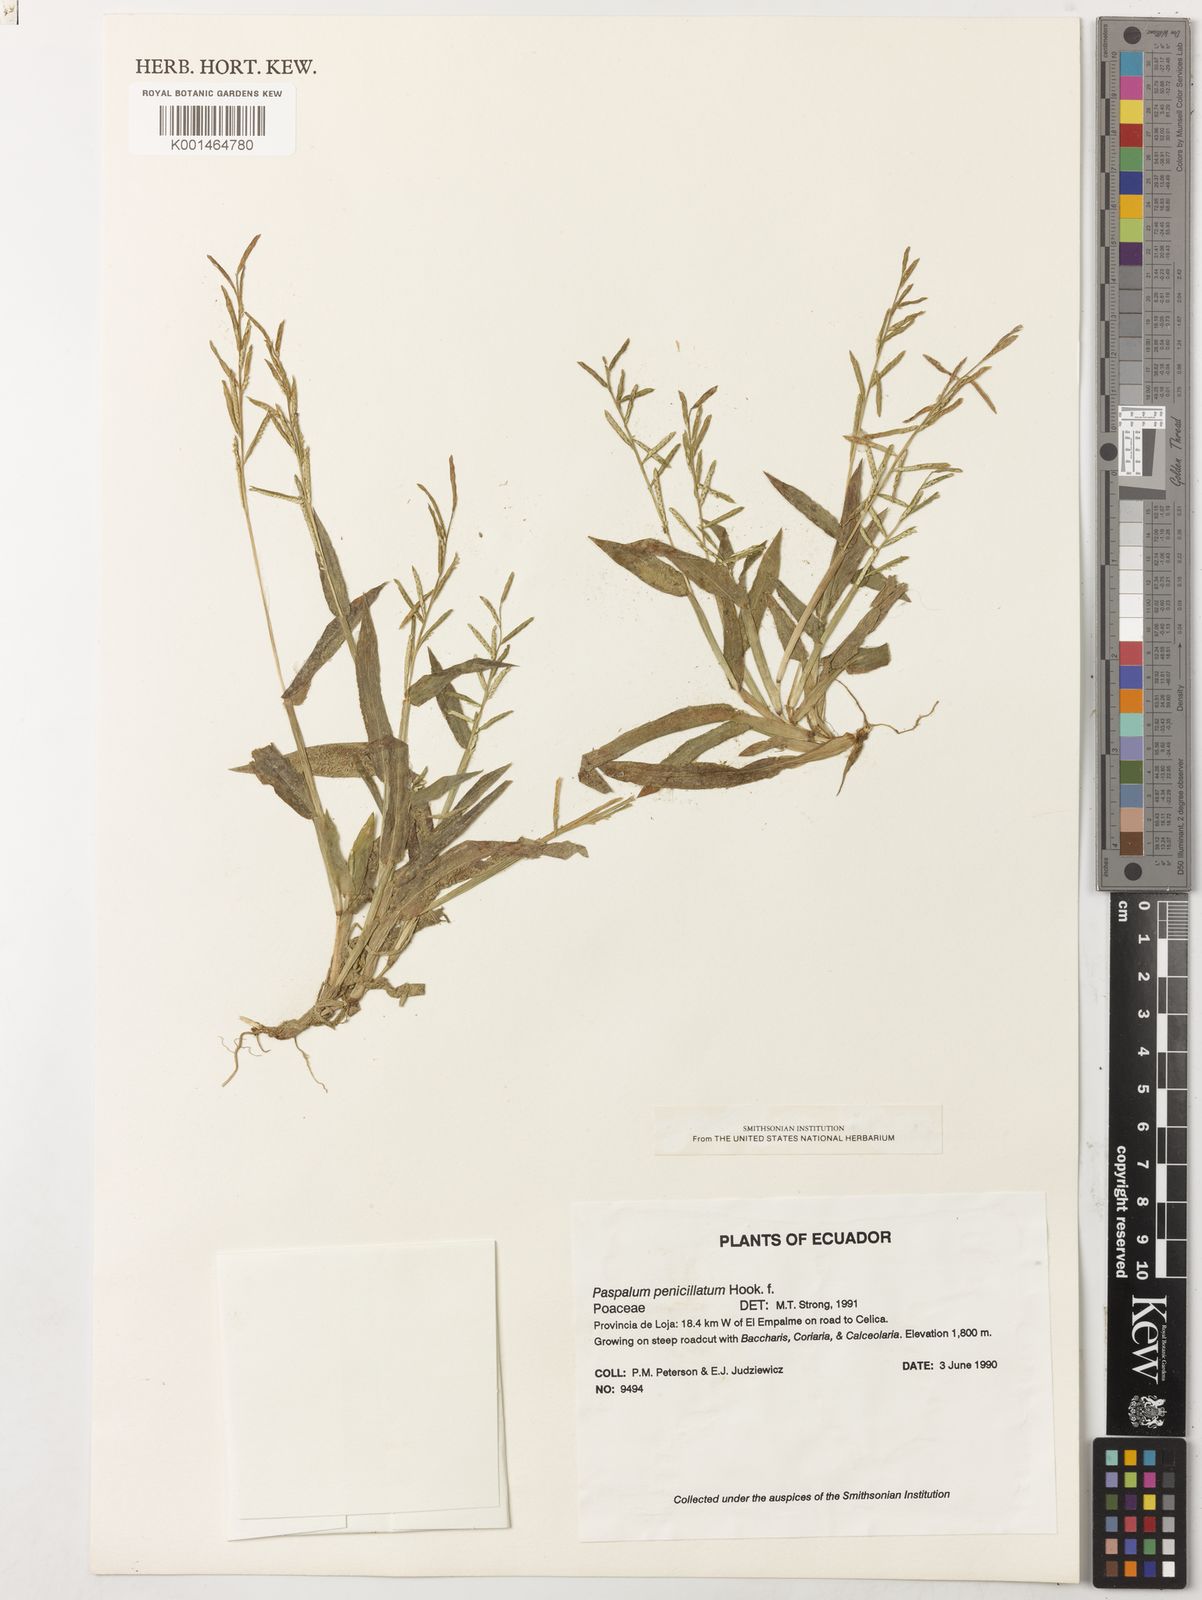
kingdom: Plantae
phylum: Tracheophyta
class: Liliopsida
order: Poales
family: Poaceae
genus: Paspalum
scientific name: Paspalum penicillatum
